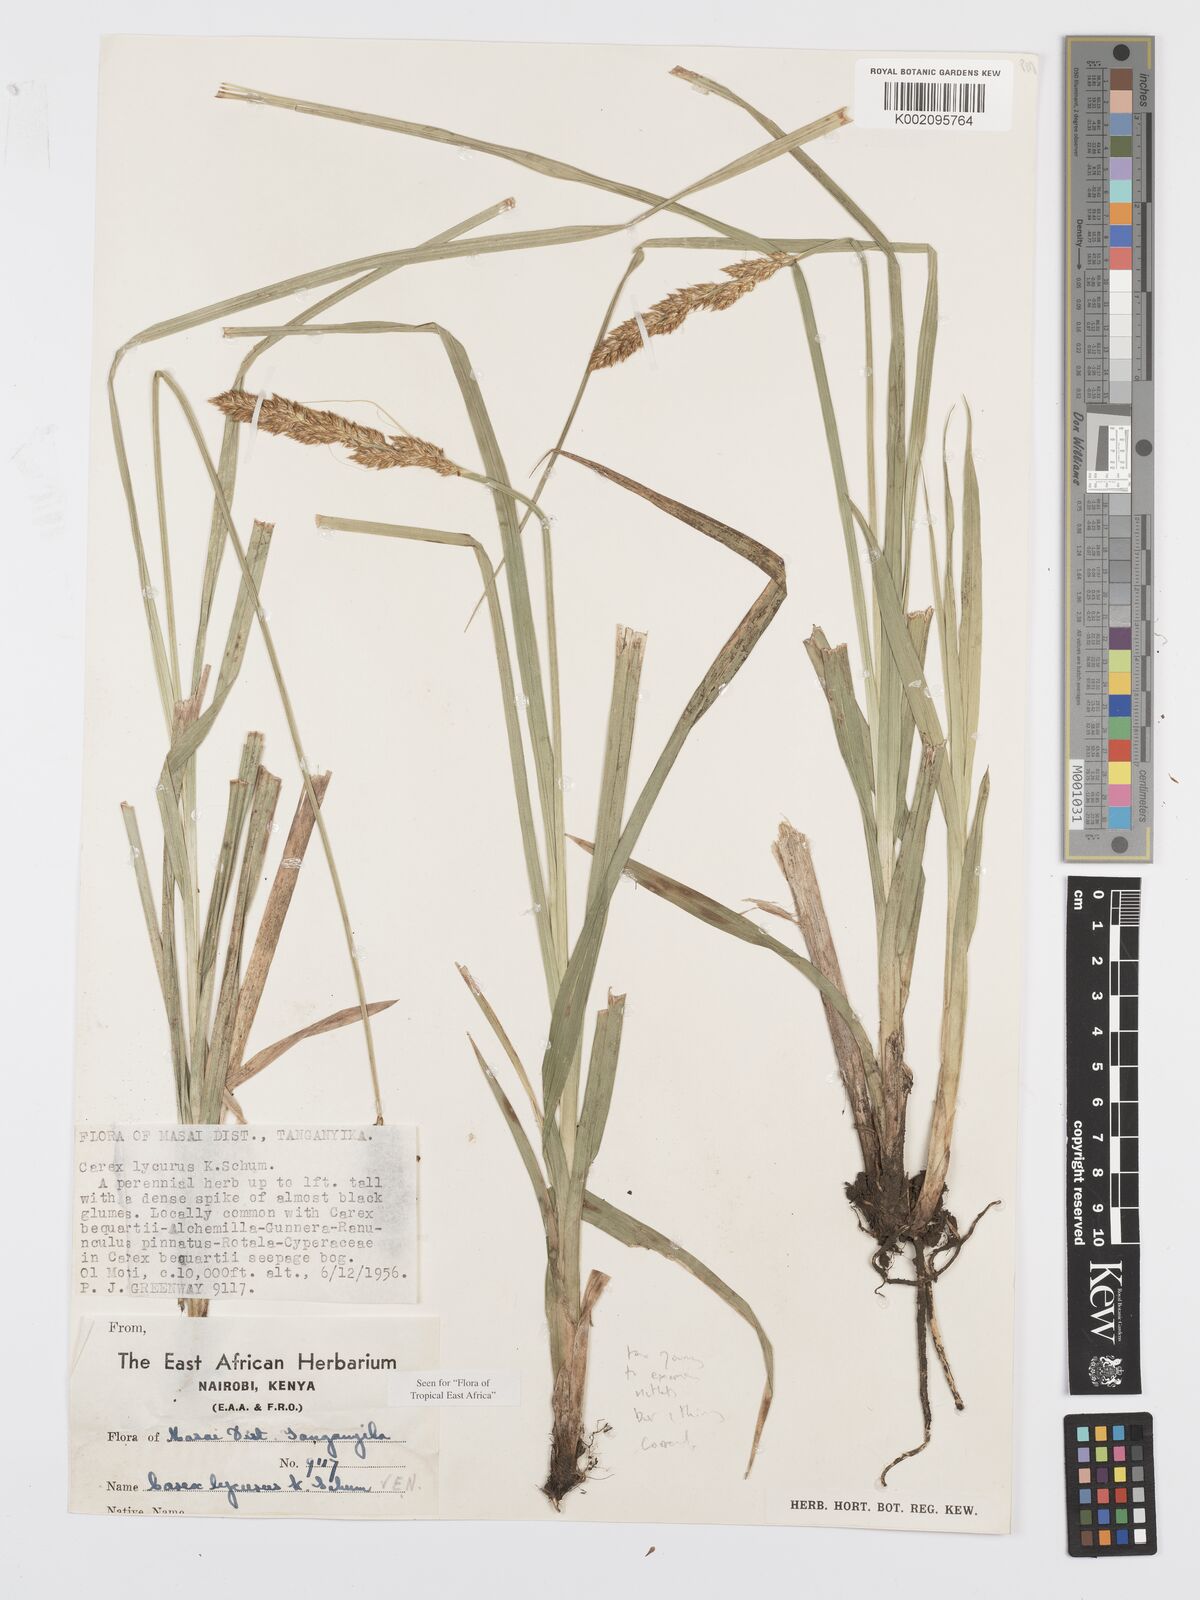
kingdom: Plantae
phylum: Tracheophyta
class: Liliopsida
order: Poales
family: Cyperaceae
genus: Carex
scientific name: Carex lycurus
